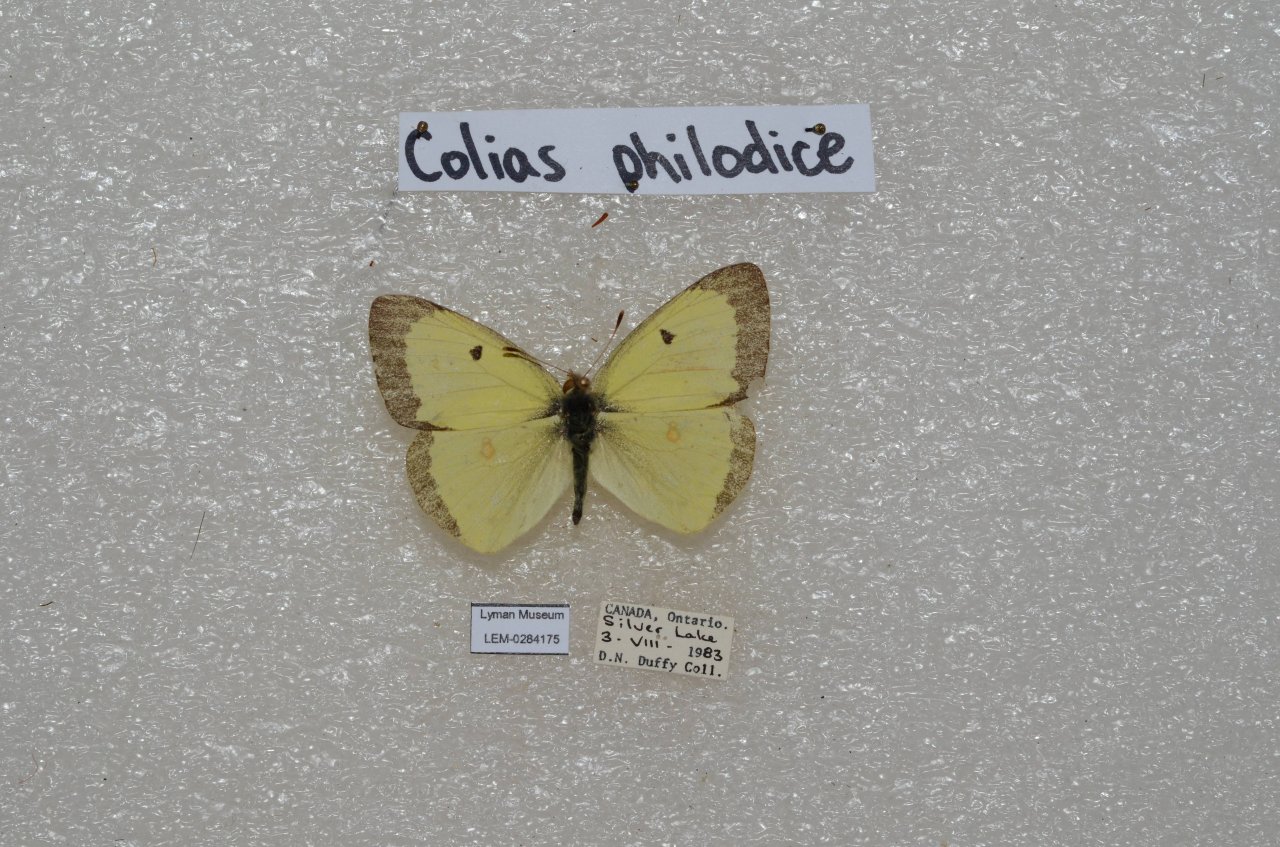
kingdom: Animalia
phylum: Arthropoda
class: Insecta
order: Lepidoptera
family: Pieridae
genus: Colias
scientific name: Colias philodice
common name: Clouded Sulphur
